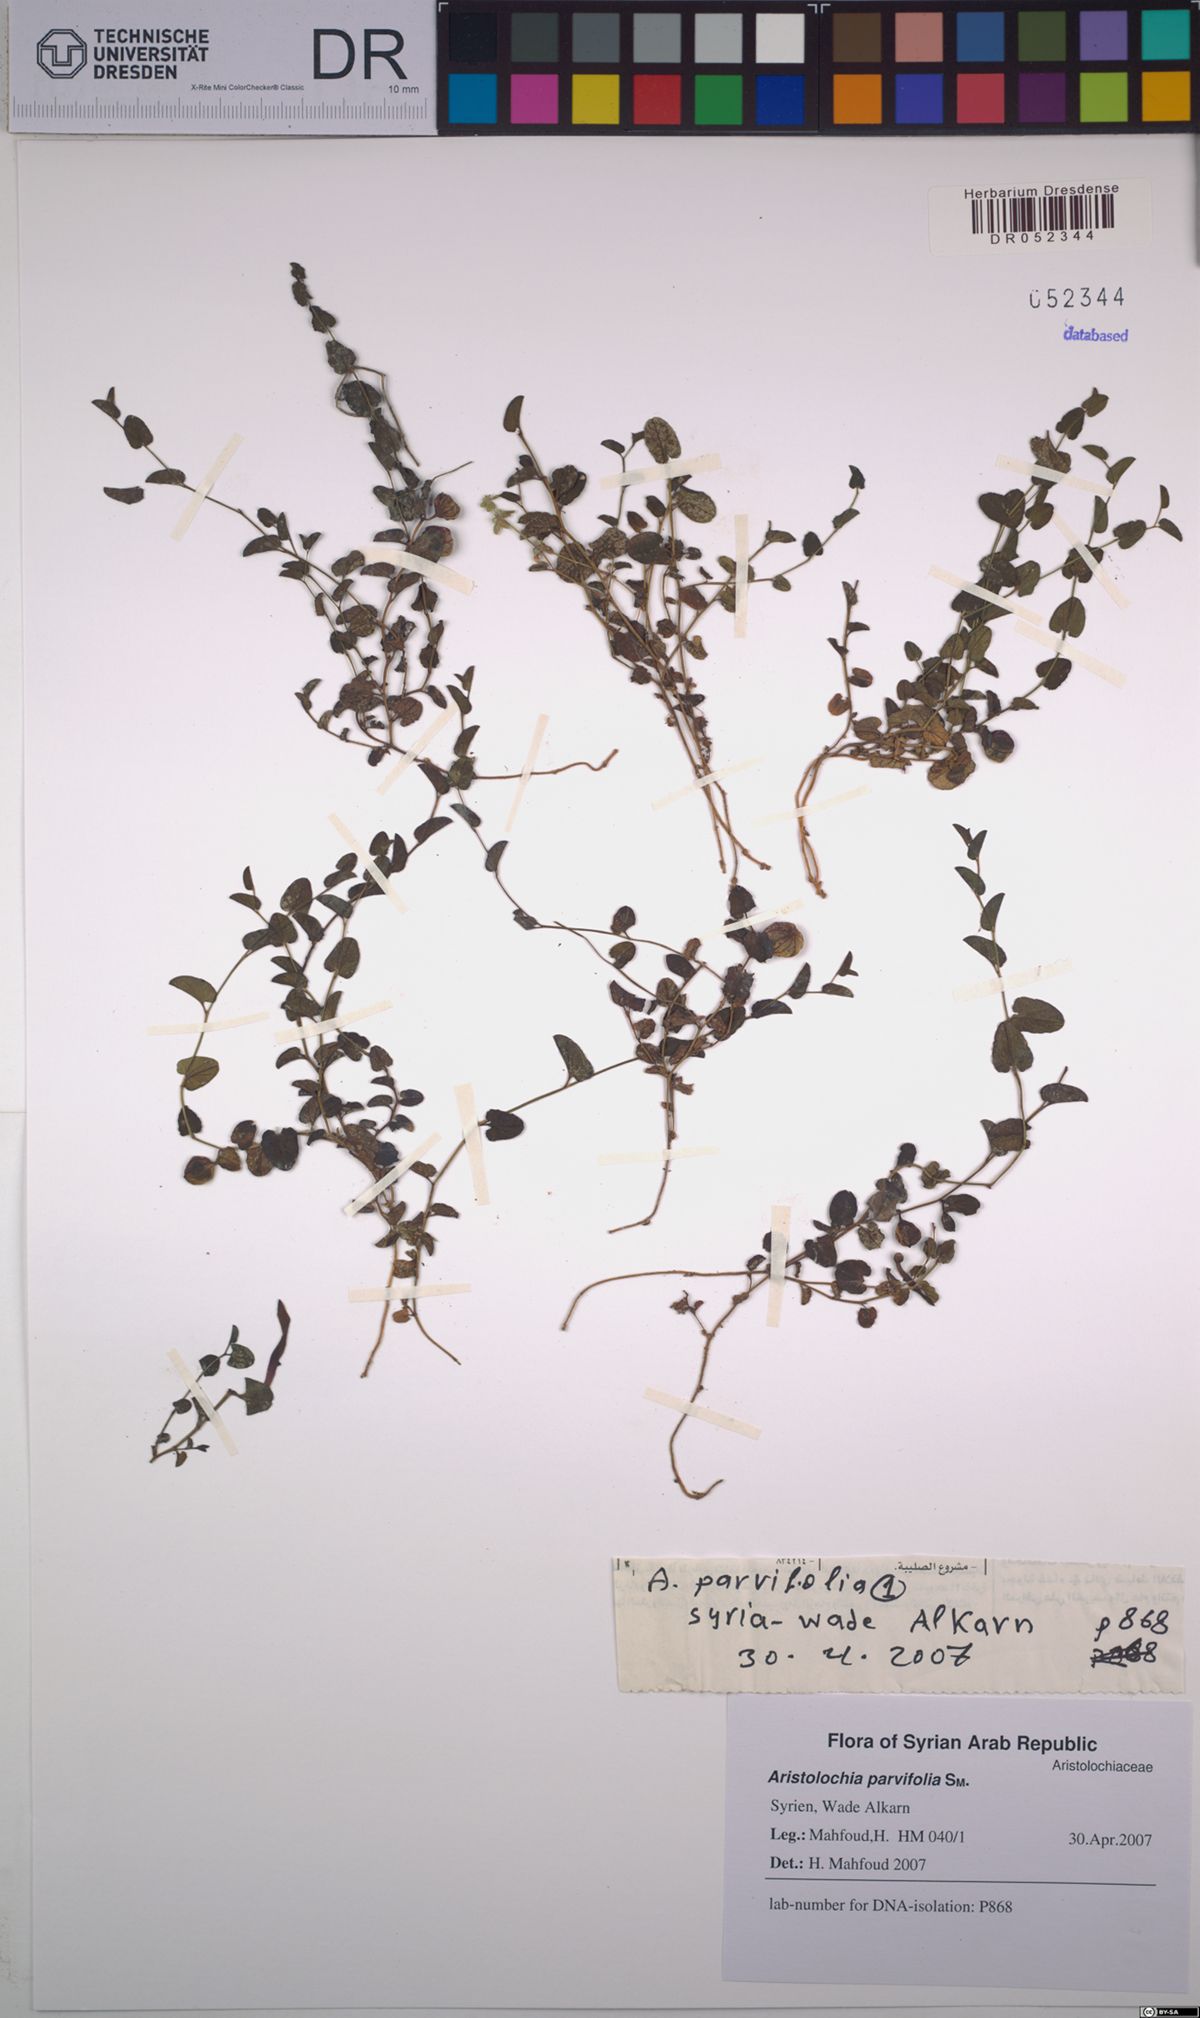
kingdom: Plantae
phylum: Tracheophyta
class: Magnoliopsida
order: Piperales
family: Aristolochiaceae
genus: Aristolochia
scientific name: Aristolochia parvifolia
